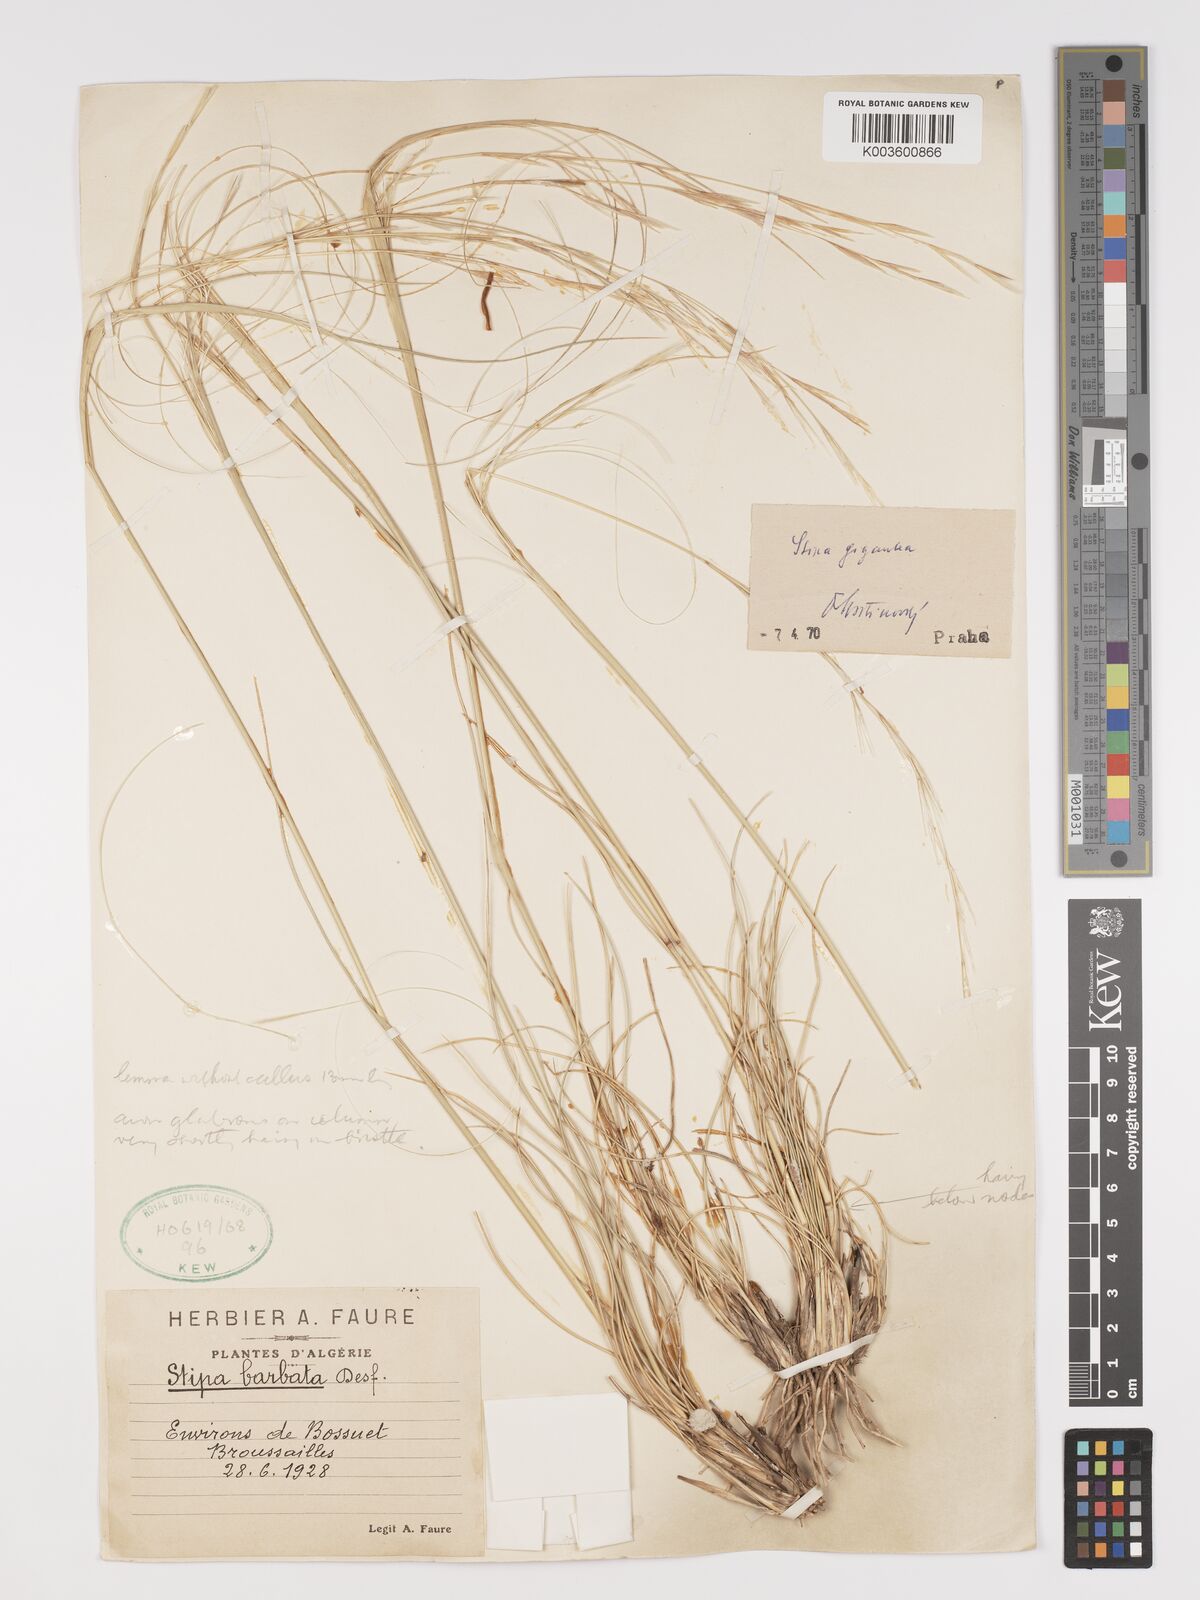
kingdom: Plantae
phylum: Tracheophyta
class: Liliopsida
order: Poales
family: Poaceae
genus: Stipa
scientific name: Stipa lagascae
